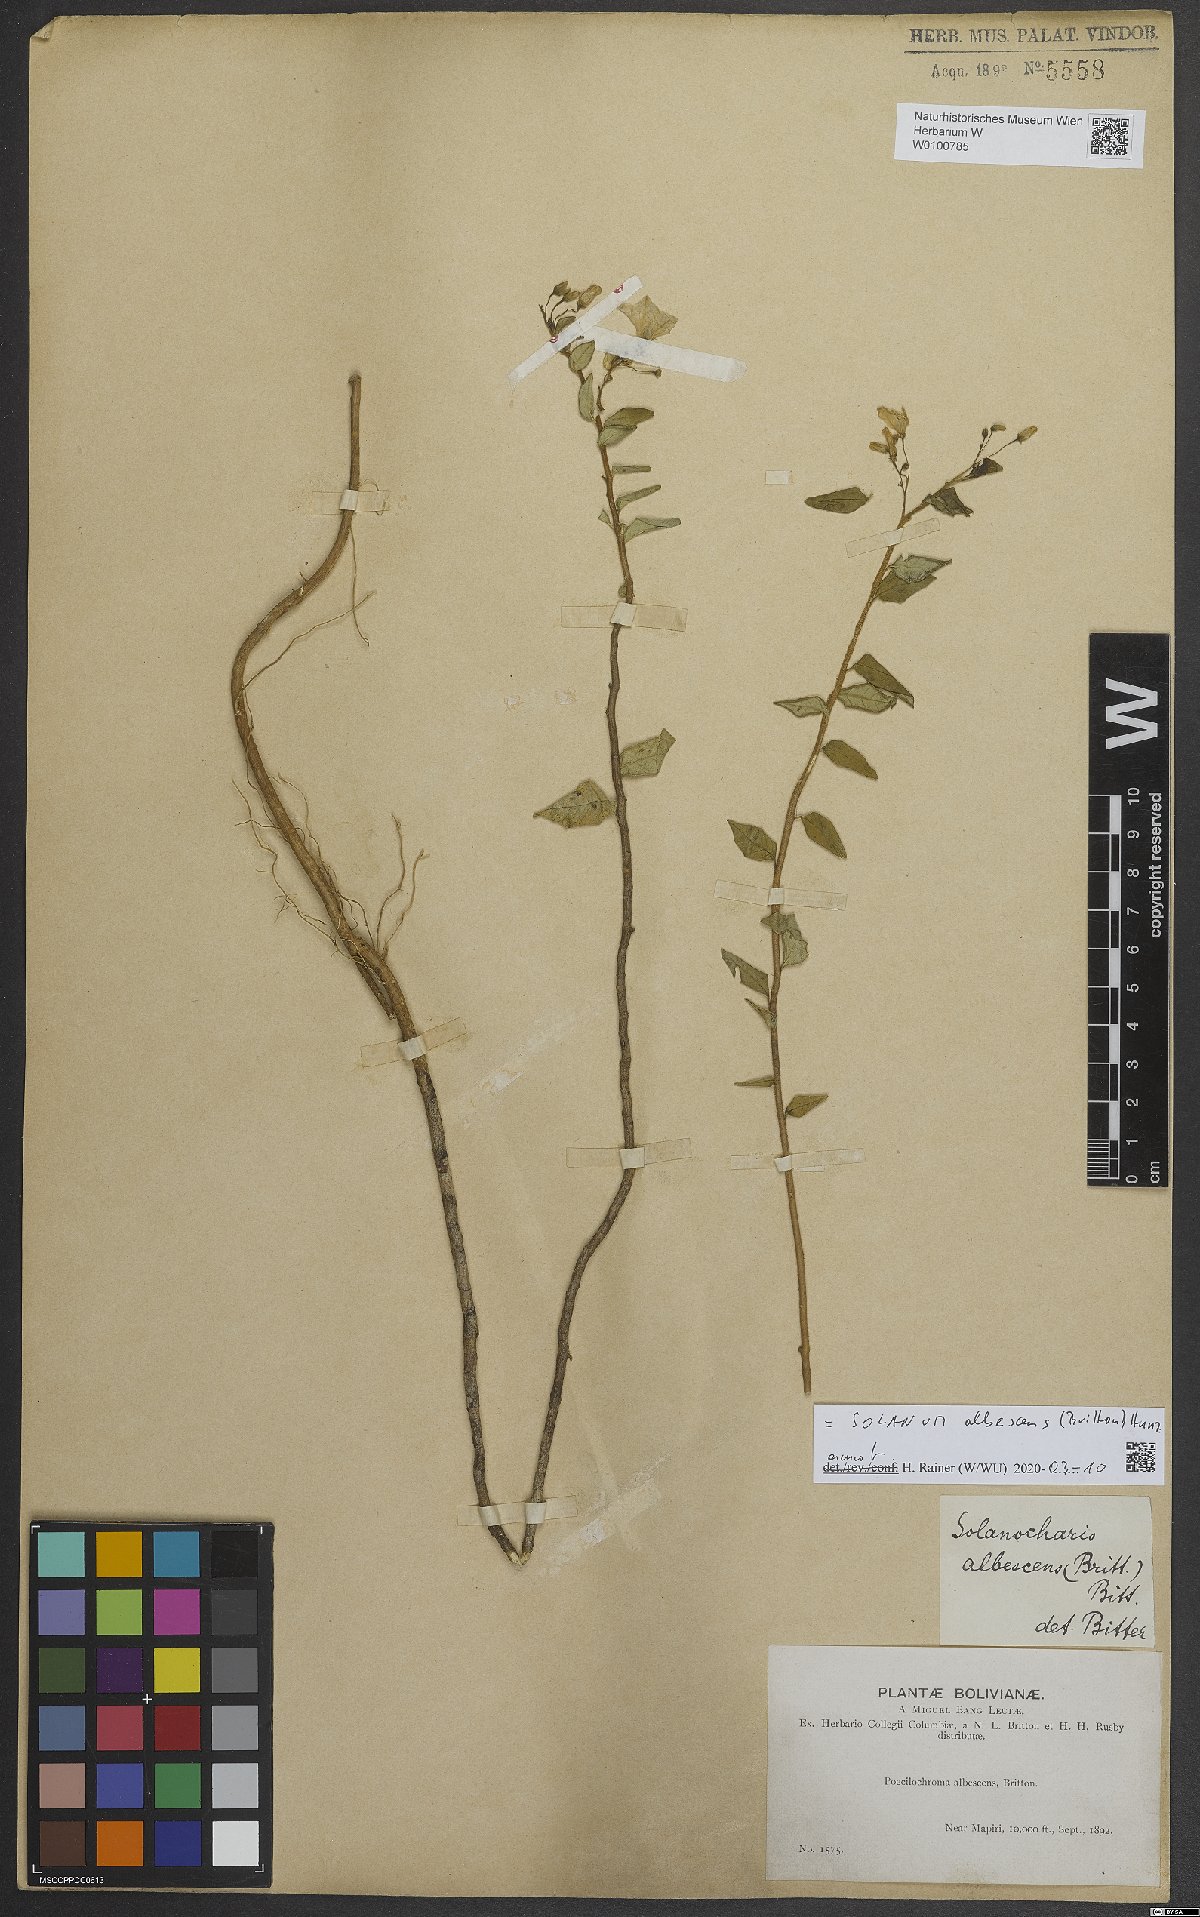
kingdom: Plantae
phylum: Tracheophyta
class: Magnoliopsida
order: Solanales
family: Solanaceae
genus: Solanum
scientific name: Solanum albescens
